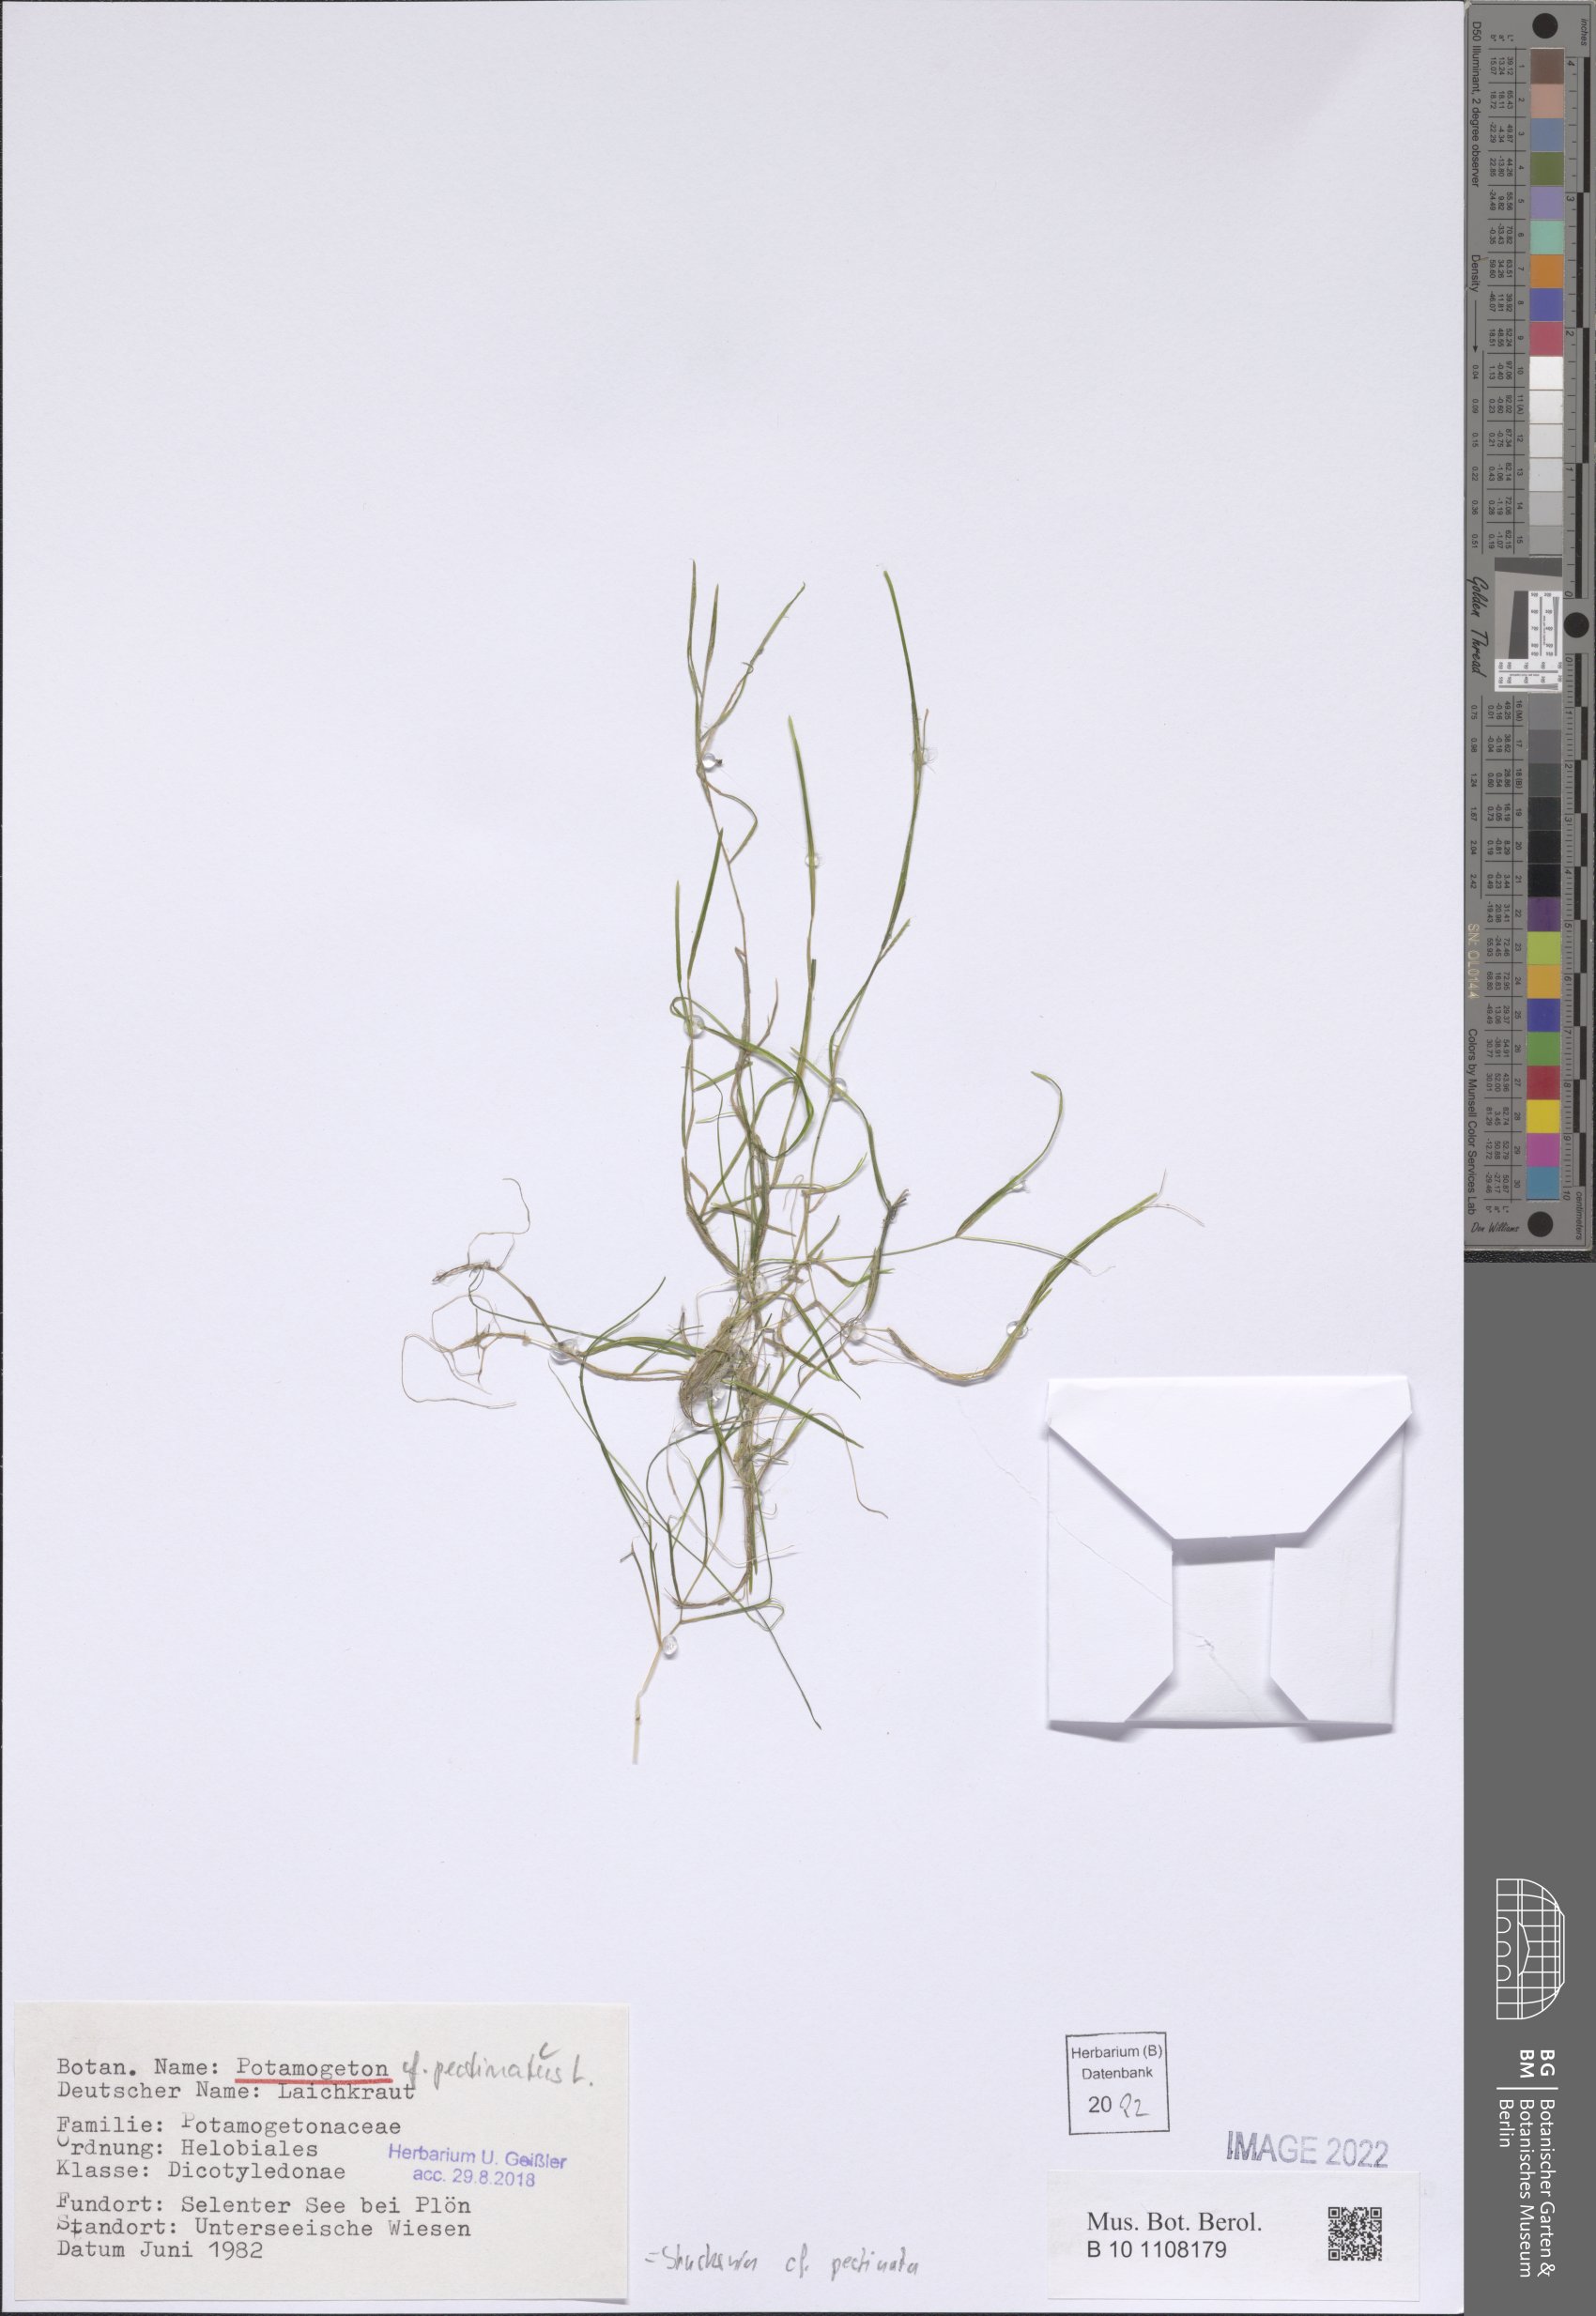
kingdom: Plantae
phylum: Tracheophyta
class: Liliopsida
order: Alismatales
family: Potamogetonaceae
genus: Stuckenia
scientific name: Stuckenia pectinata
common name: Sago pondweed
